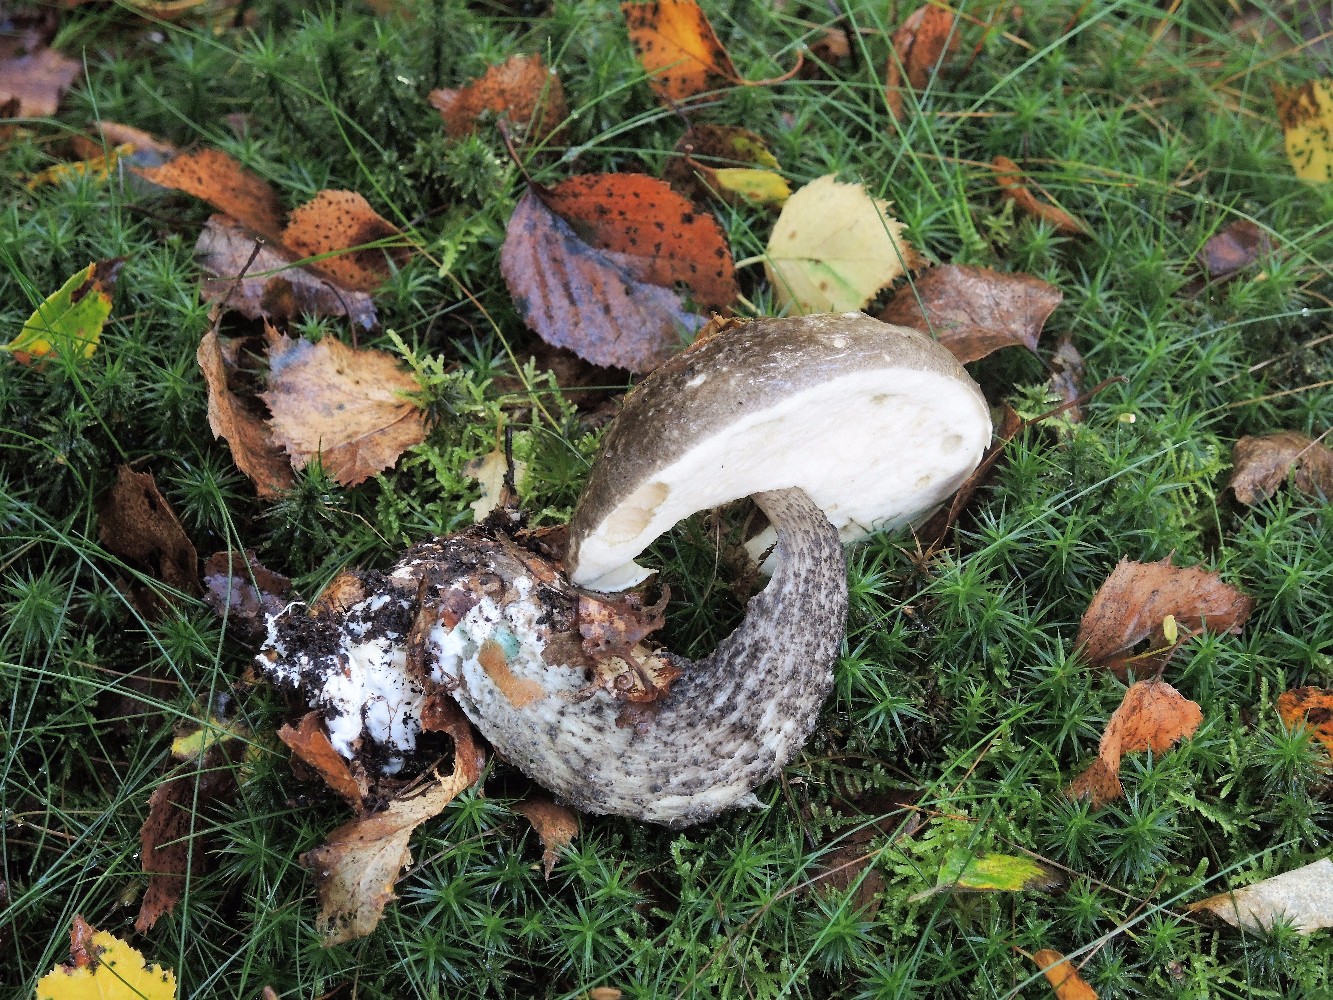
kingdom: Fungi
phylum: Basidiomycota
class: Agaricomycetes
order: Boletales
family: Boletaceae
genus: Leccinum
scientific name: Leccinum variicolor
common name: flammet skælrørhat
